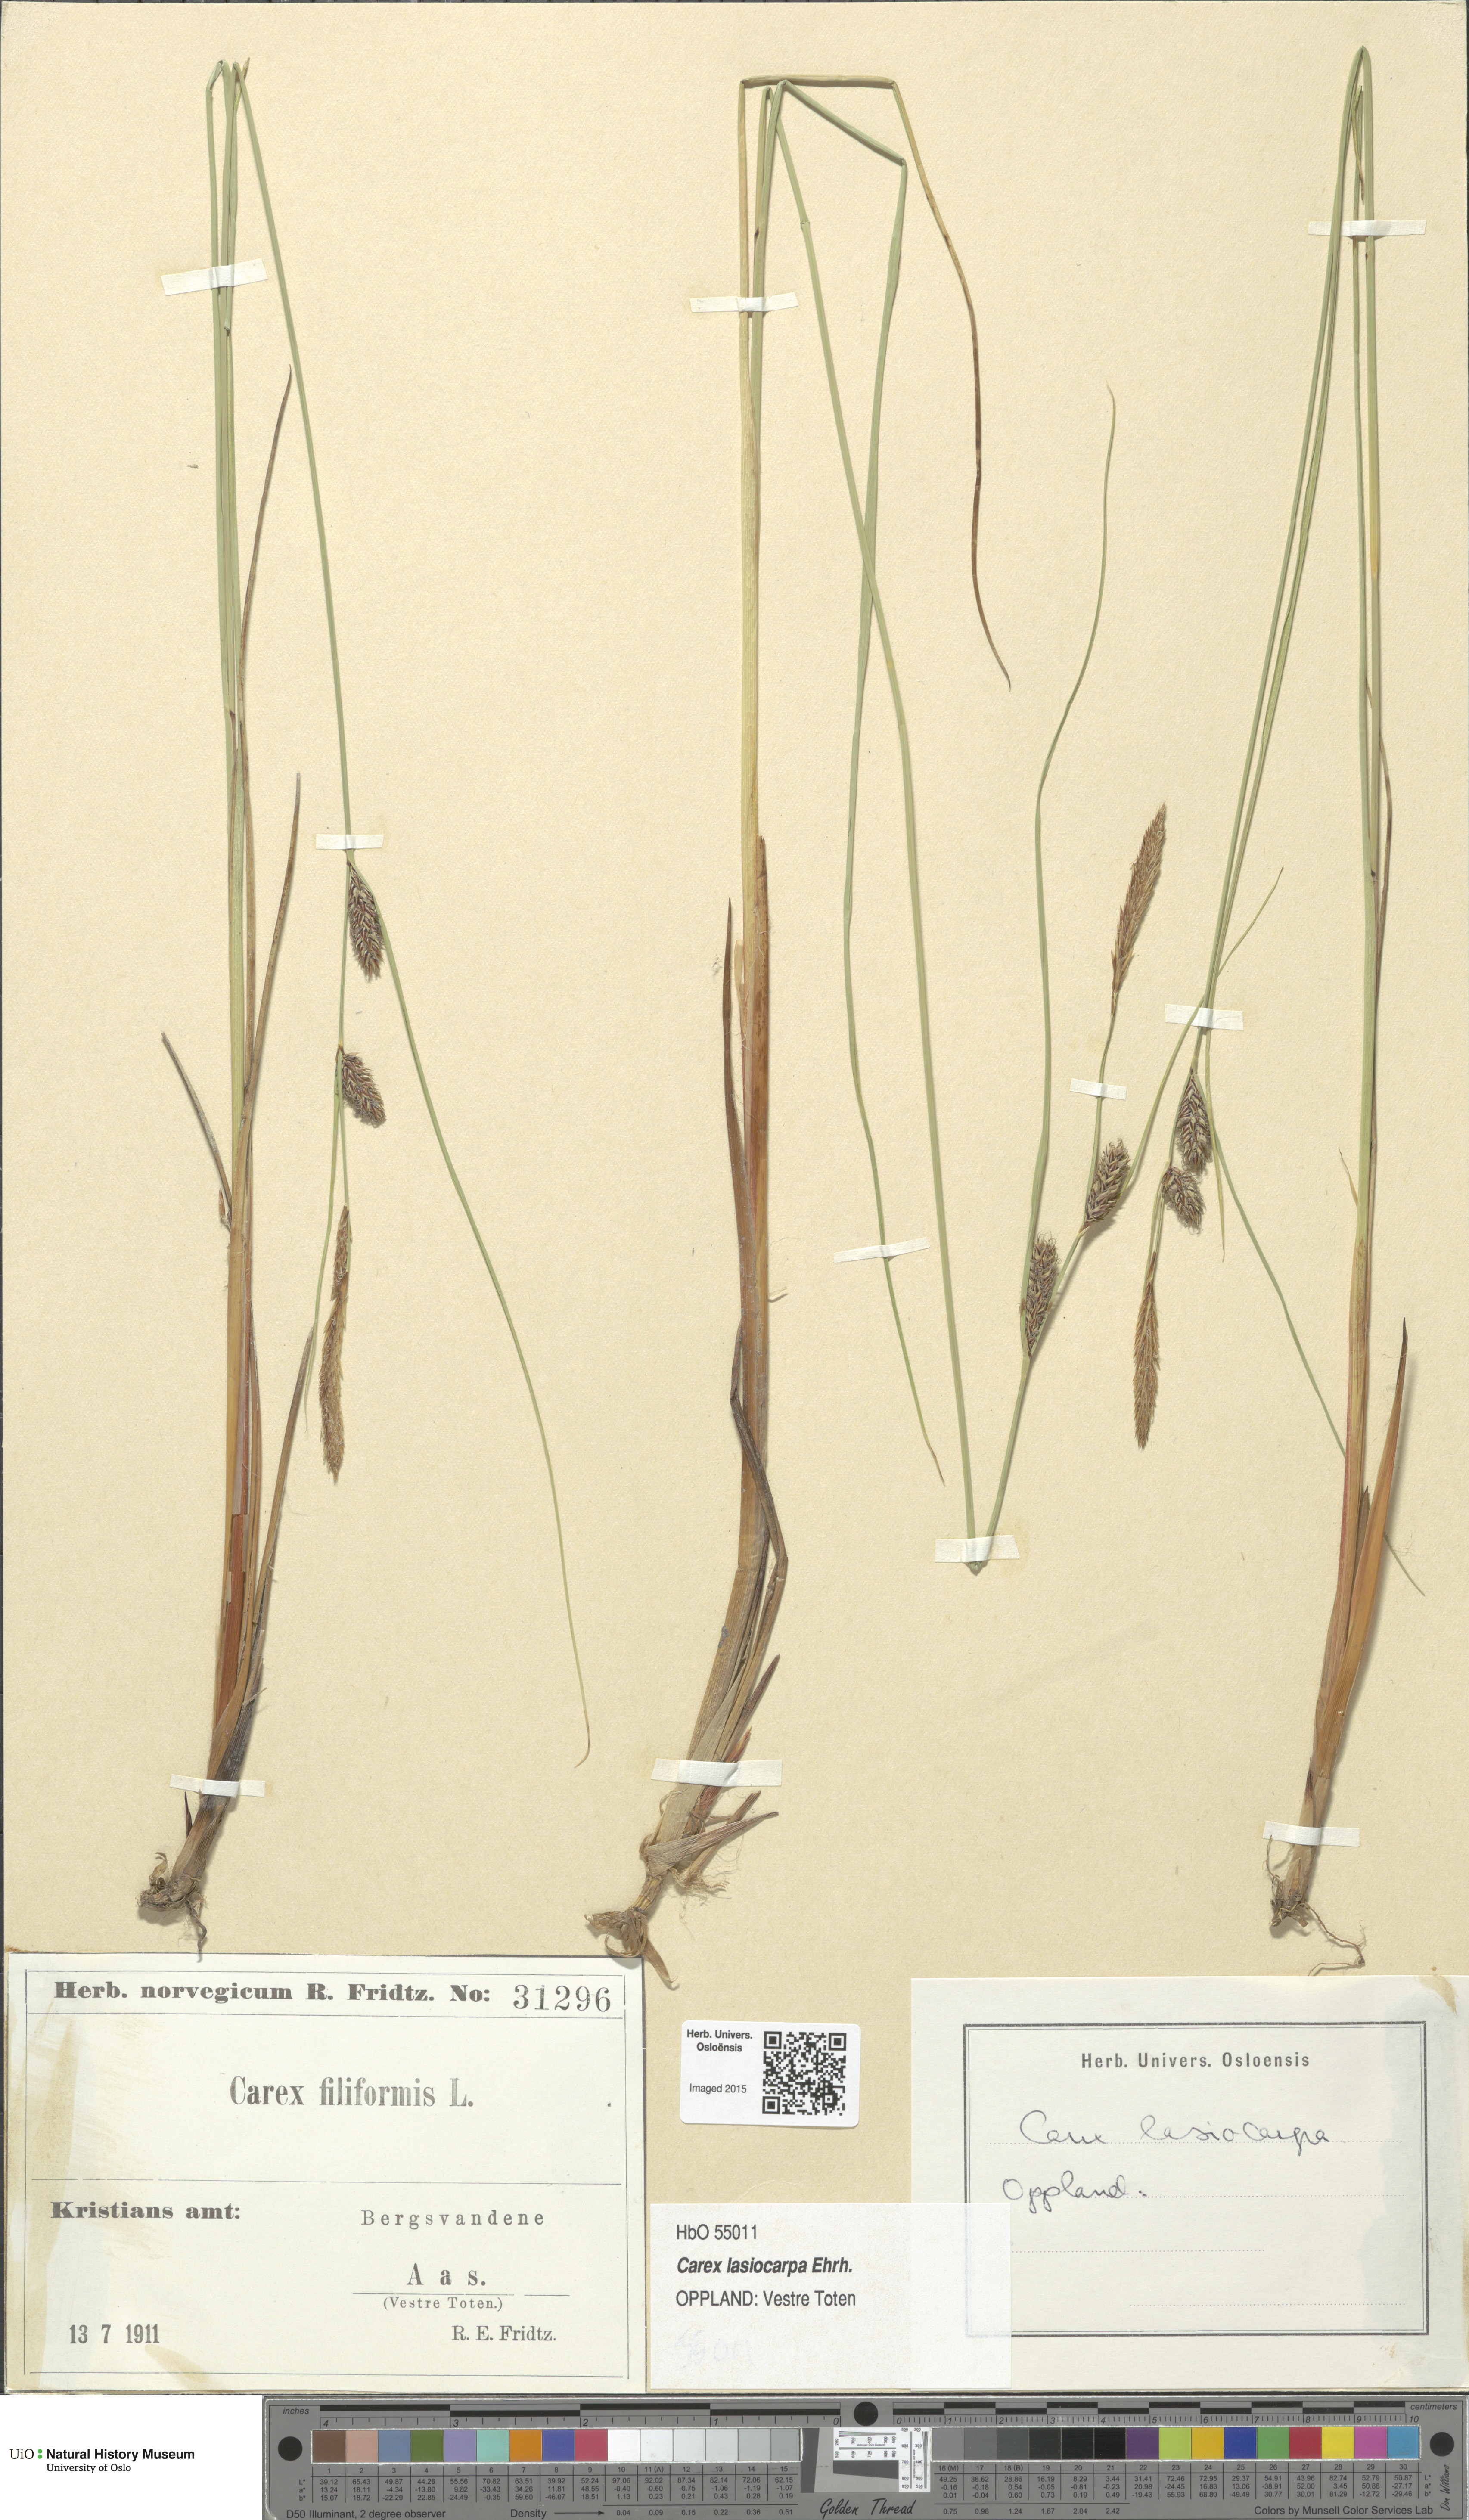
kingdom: Plantae
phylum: Tracheophyta
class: Liliopsida
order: Poales
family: Cyperaceae
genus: Carex
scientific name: Carex montana
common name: Soft-leaved sedge
